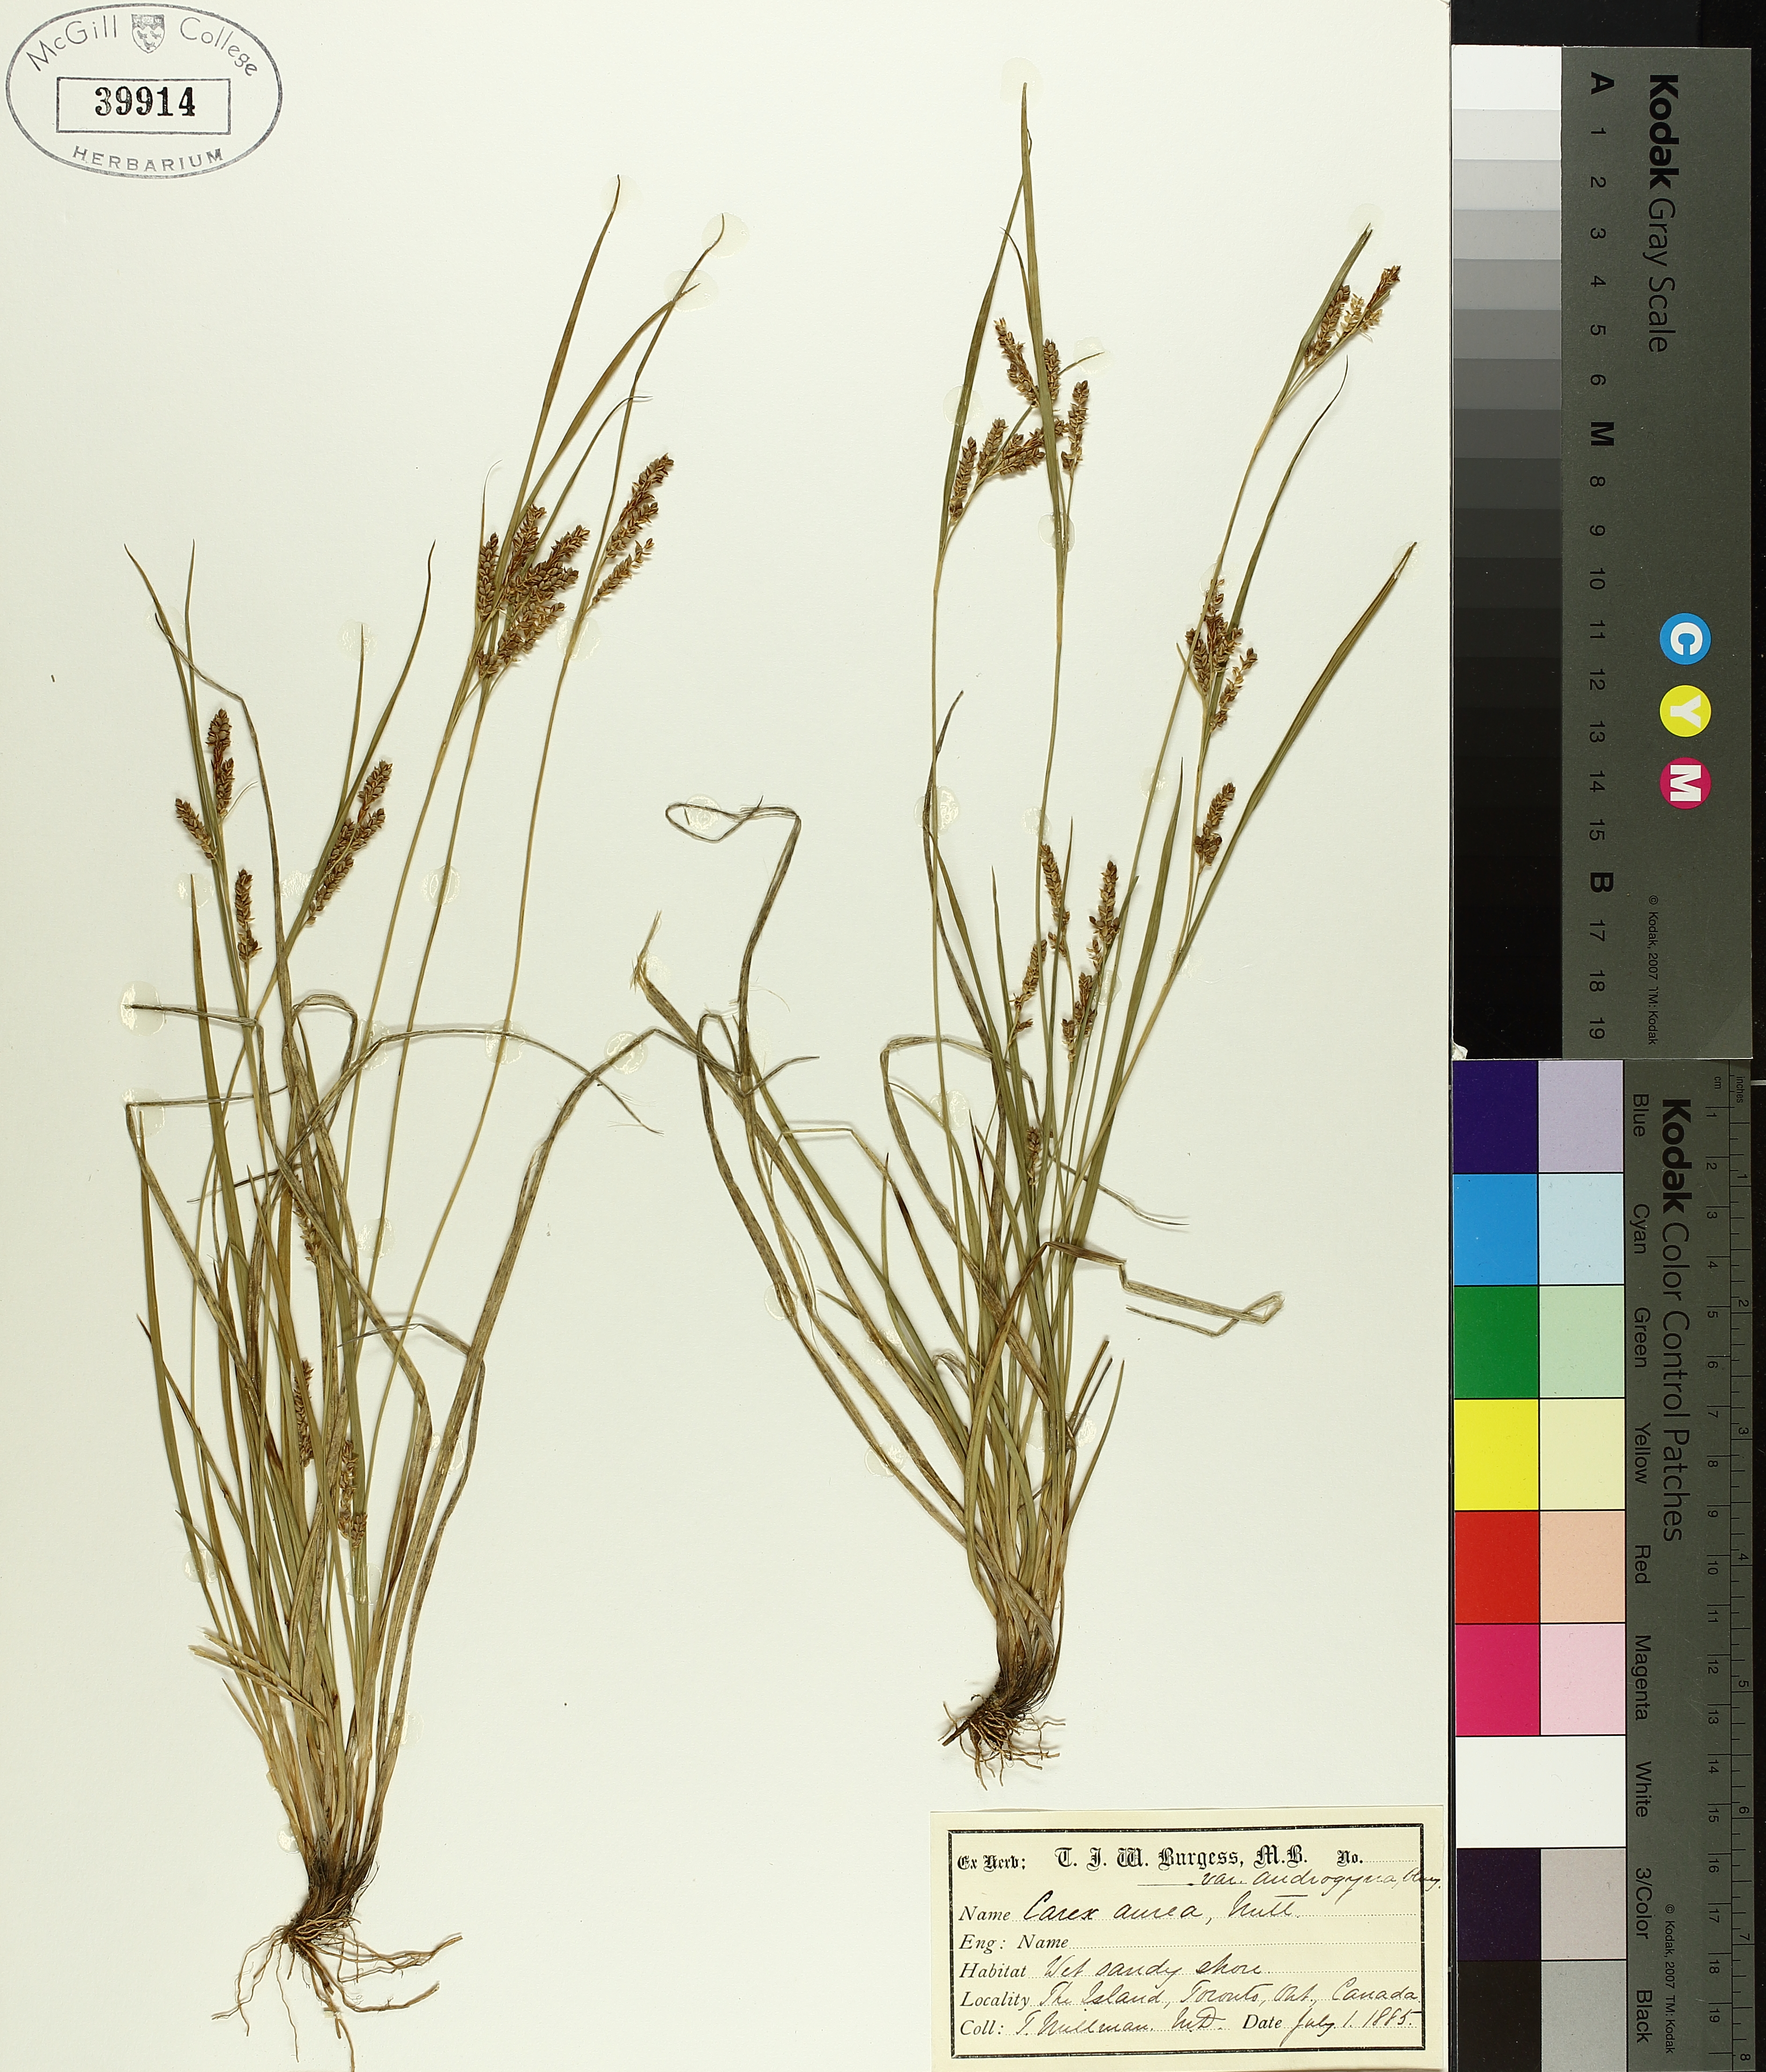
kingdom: Plantae
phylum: Tracheophyta
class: Liliopsida
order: Poales
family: Cyperaceae
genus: Carex
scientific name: Carex garberi
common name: Elk sedge
